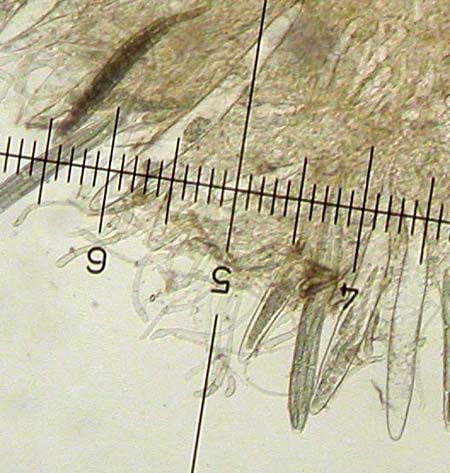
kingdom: Fungi
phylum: Ascomycota
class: Geoglossomycetes
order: Geoglossales
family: Geoglossaceae
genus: Geoglossum
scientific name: Geoglossum fallax
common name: småskællet jordtunge
